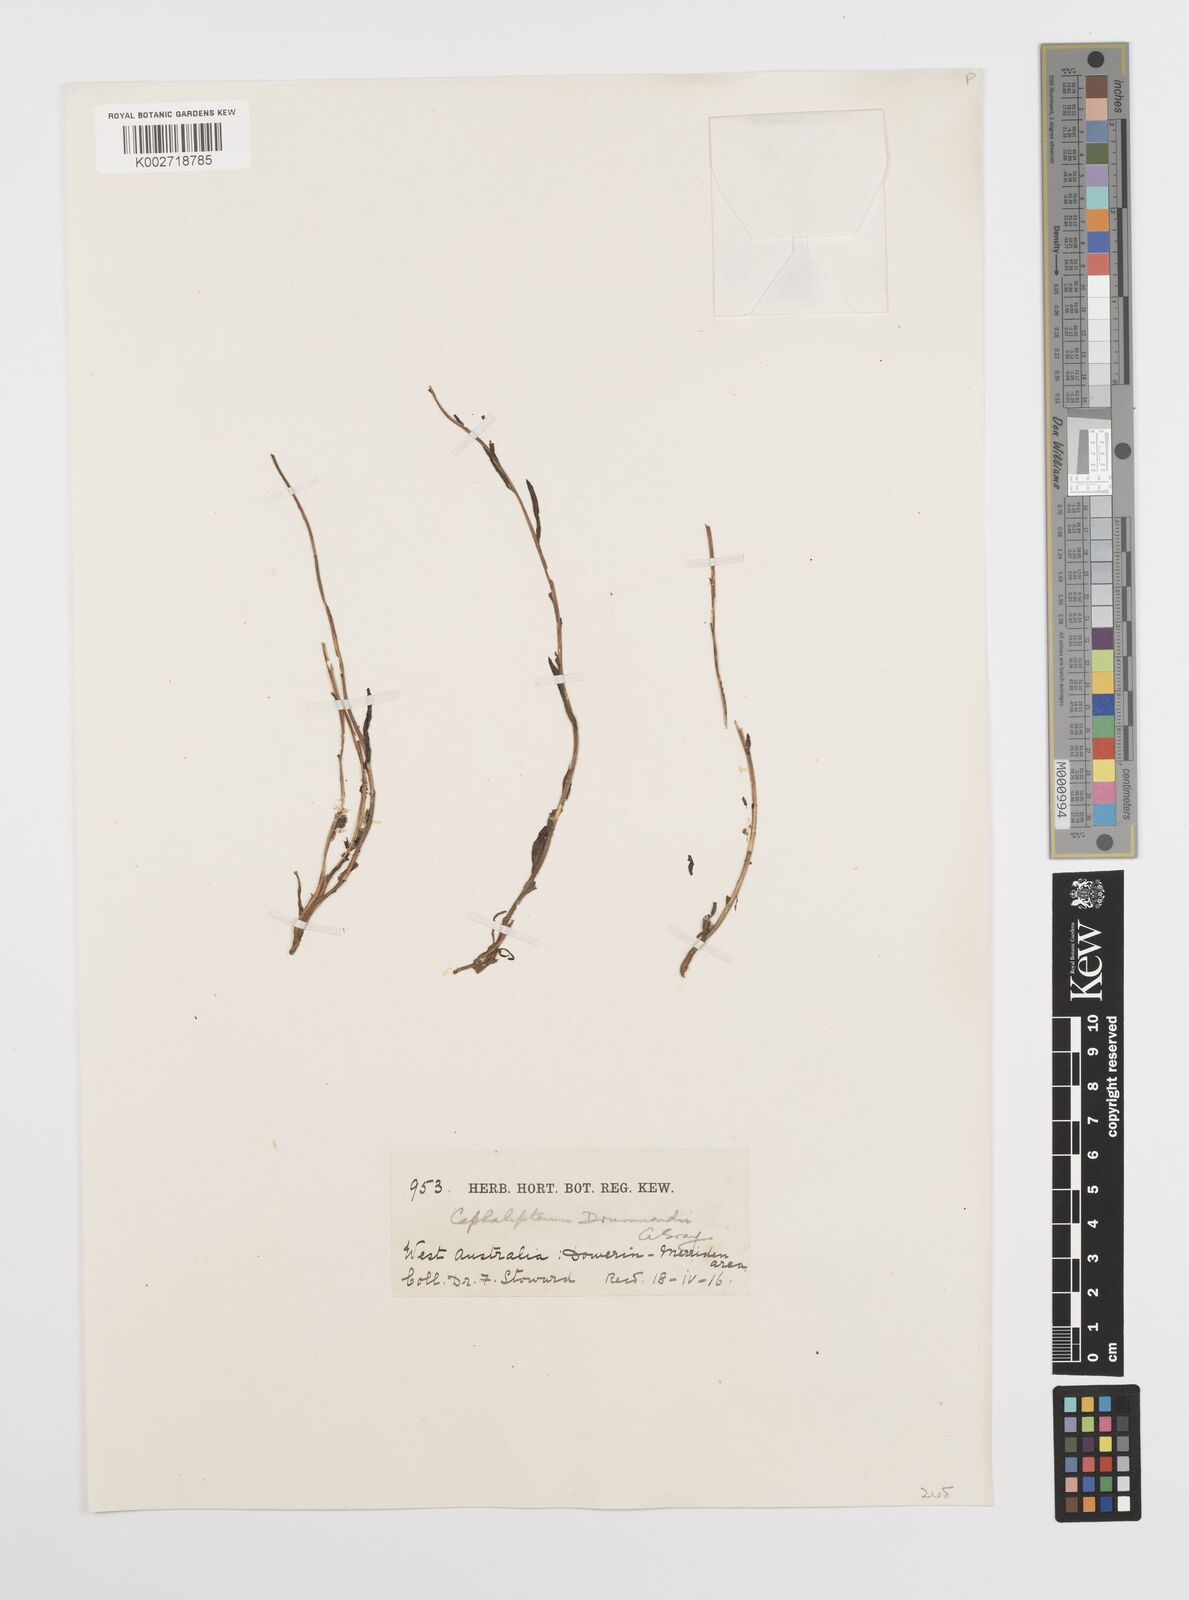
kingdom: Plantae
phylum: Tracheophyta
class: Magnoliopsida
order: Asterales
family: Asteraceae
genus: Cephalipterum
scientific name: Cephalipterum drummondii
